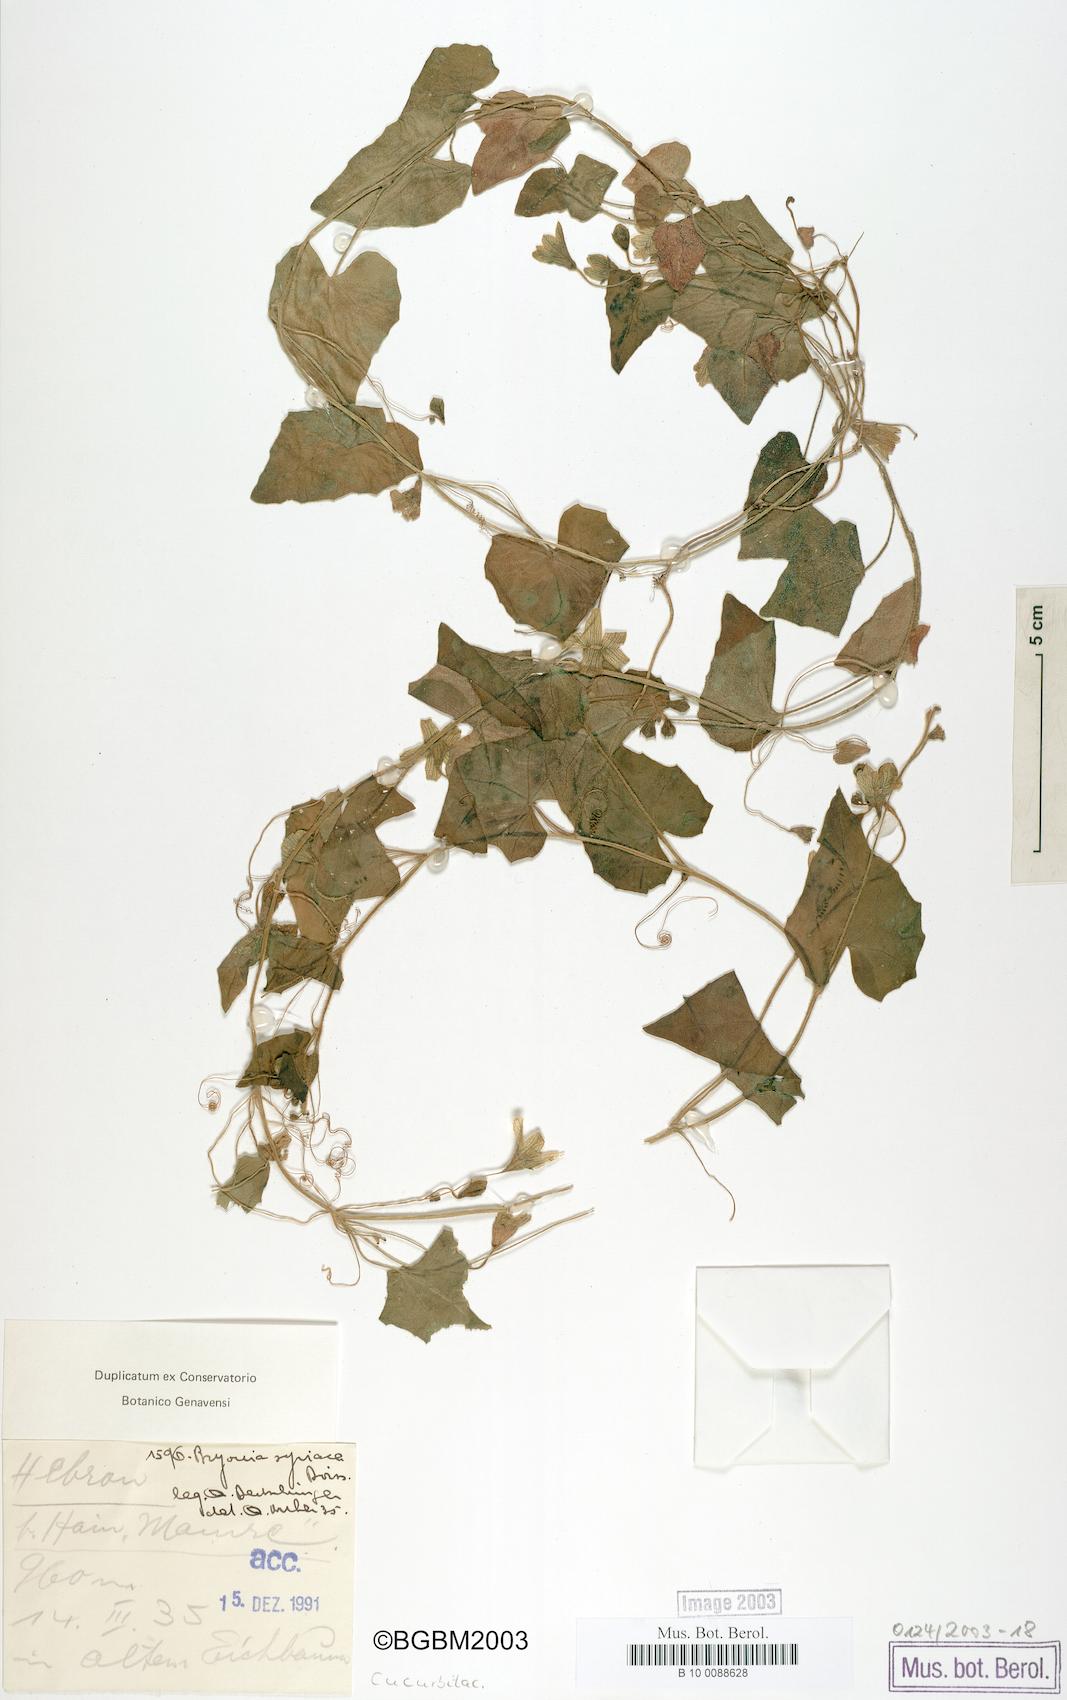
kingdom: Plantae
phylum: Tracheophyta
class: Magnoliopsida
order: Cucurbitales
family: Cucurbitaceae
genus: Bryonia
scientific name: Bryonia syriaca
